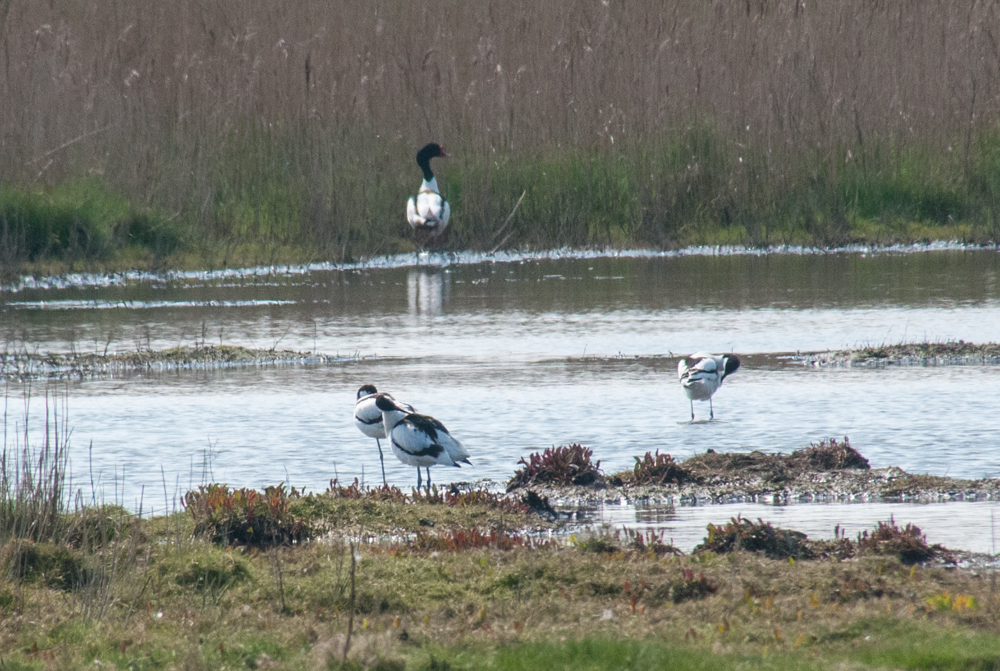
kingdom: Animalia
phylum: Chordata
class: Aves
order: Charadriiformes
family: Recurvirostridae
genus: Recurvirostra
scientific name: Recurvirostra avosetta
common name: Pied avocet
